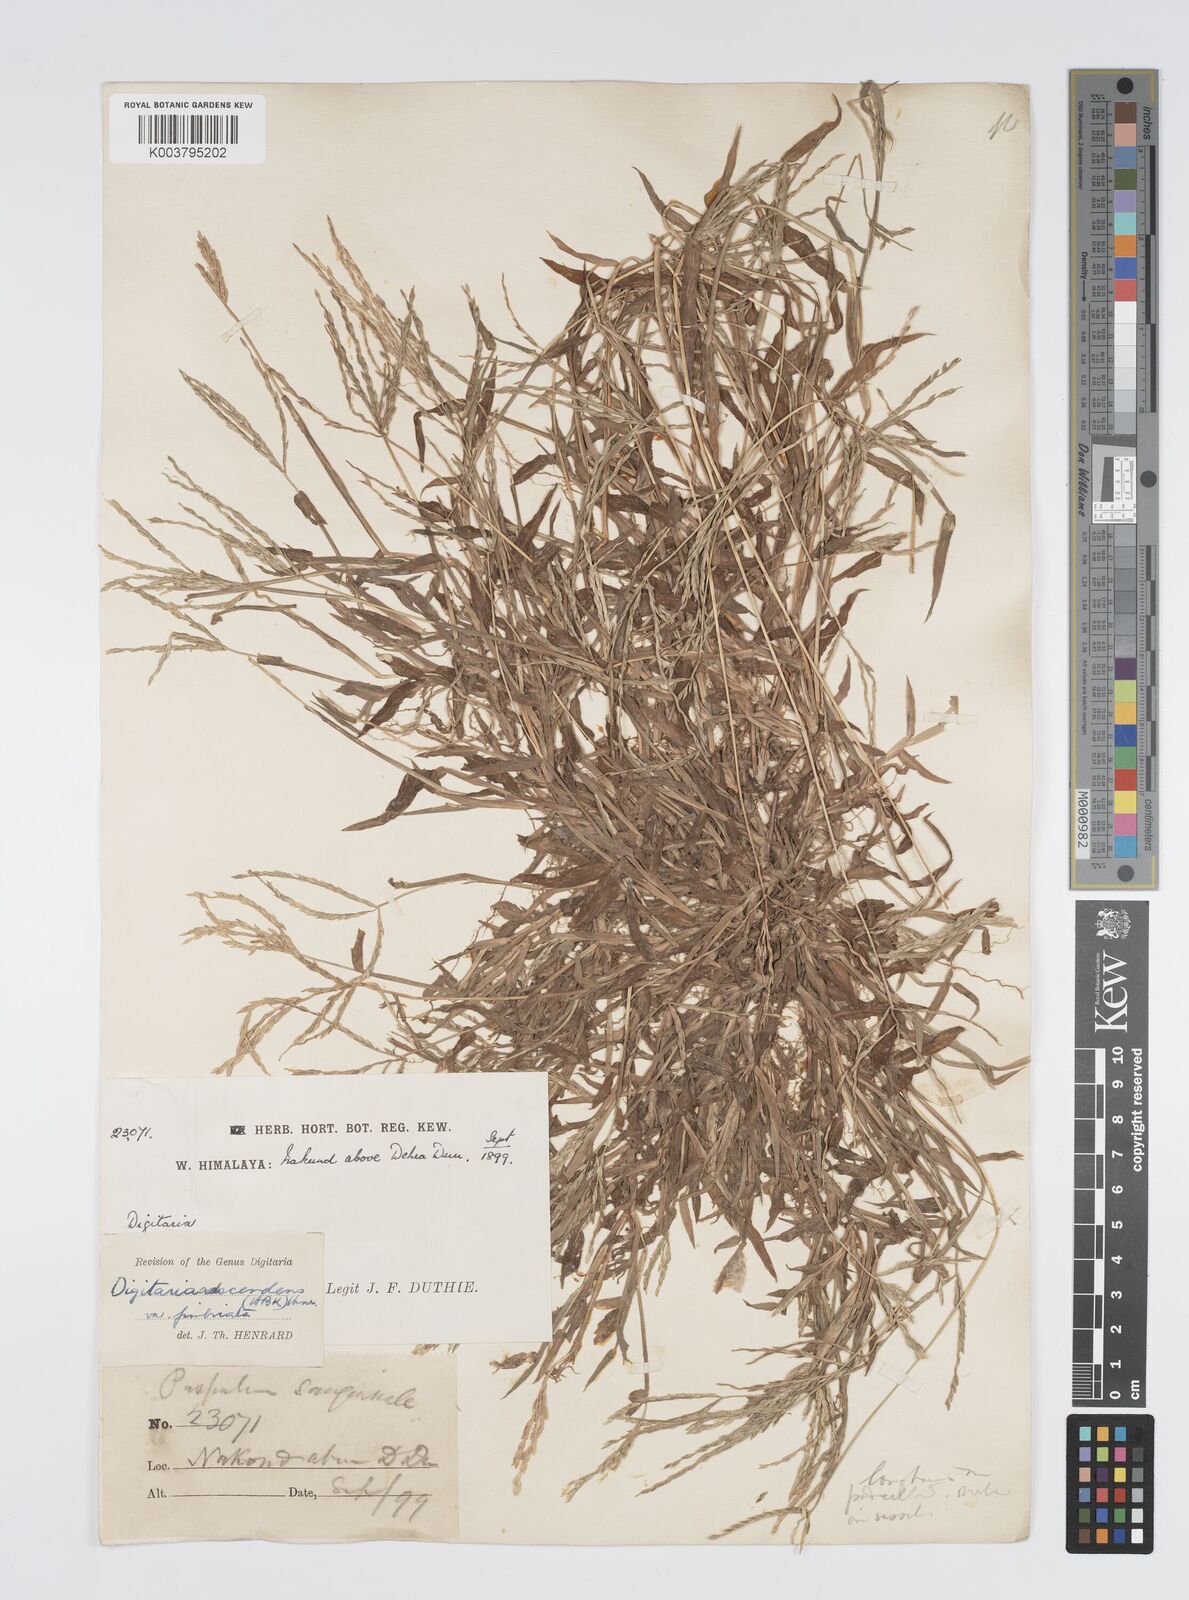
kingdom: Plantae
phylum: Tracheophyta
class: Liliopsida
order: Poales
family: Poaceae
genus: Digitaria
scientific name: Digitaria ciliaris
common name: Tropical finger-grass
